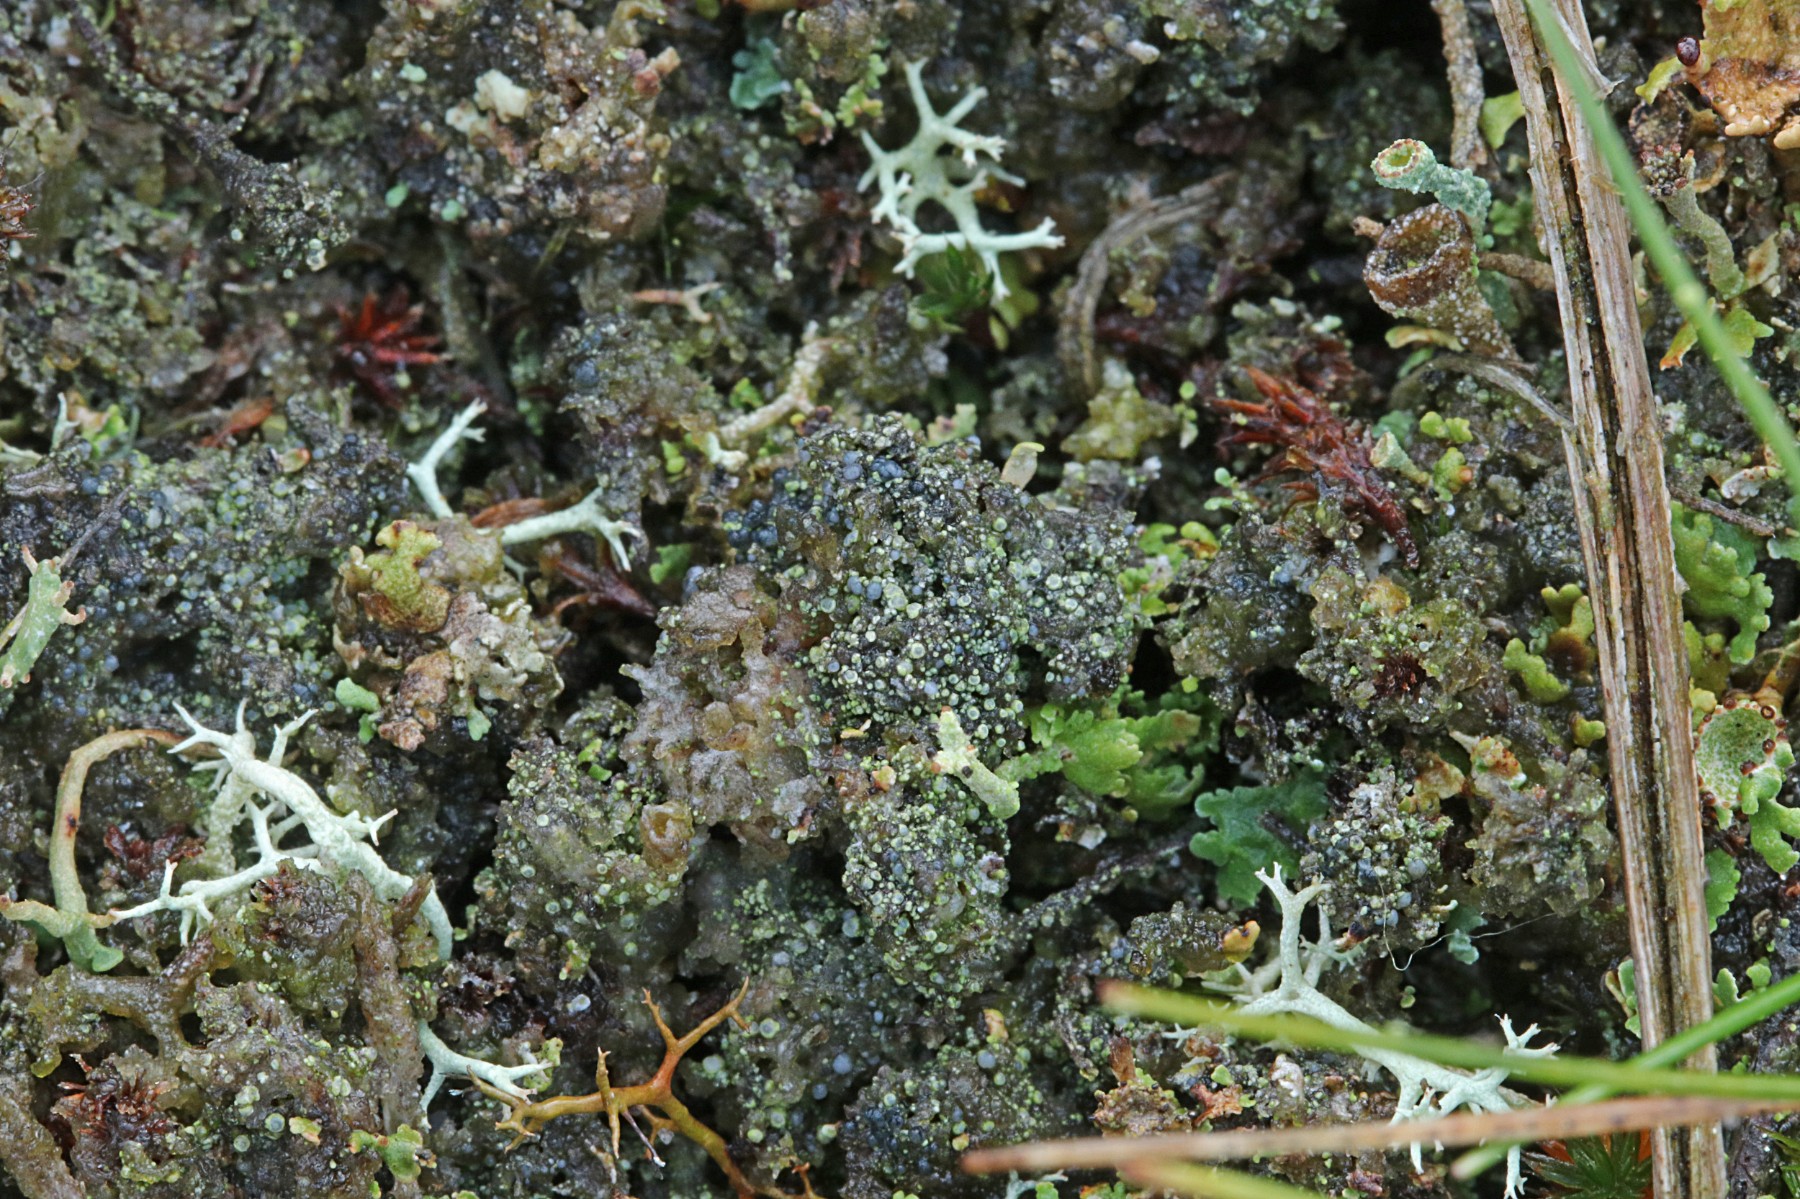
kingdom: Fungi
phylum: Ascomycota
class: Lecanoromycetes
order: Lecanorales
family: Byssolomataceae
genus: Micarea
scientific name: Micarea lignaria
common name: tørve-knaplav
